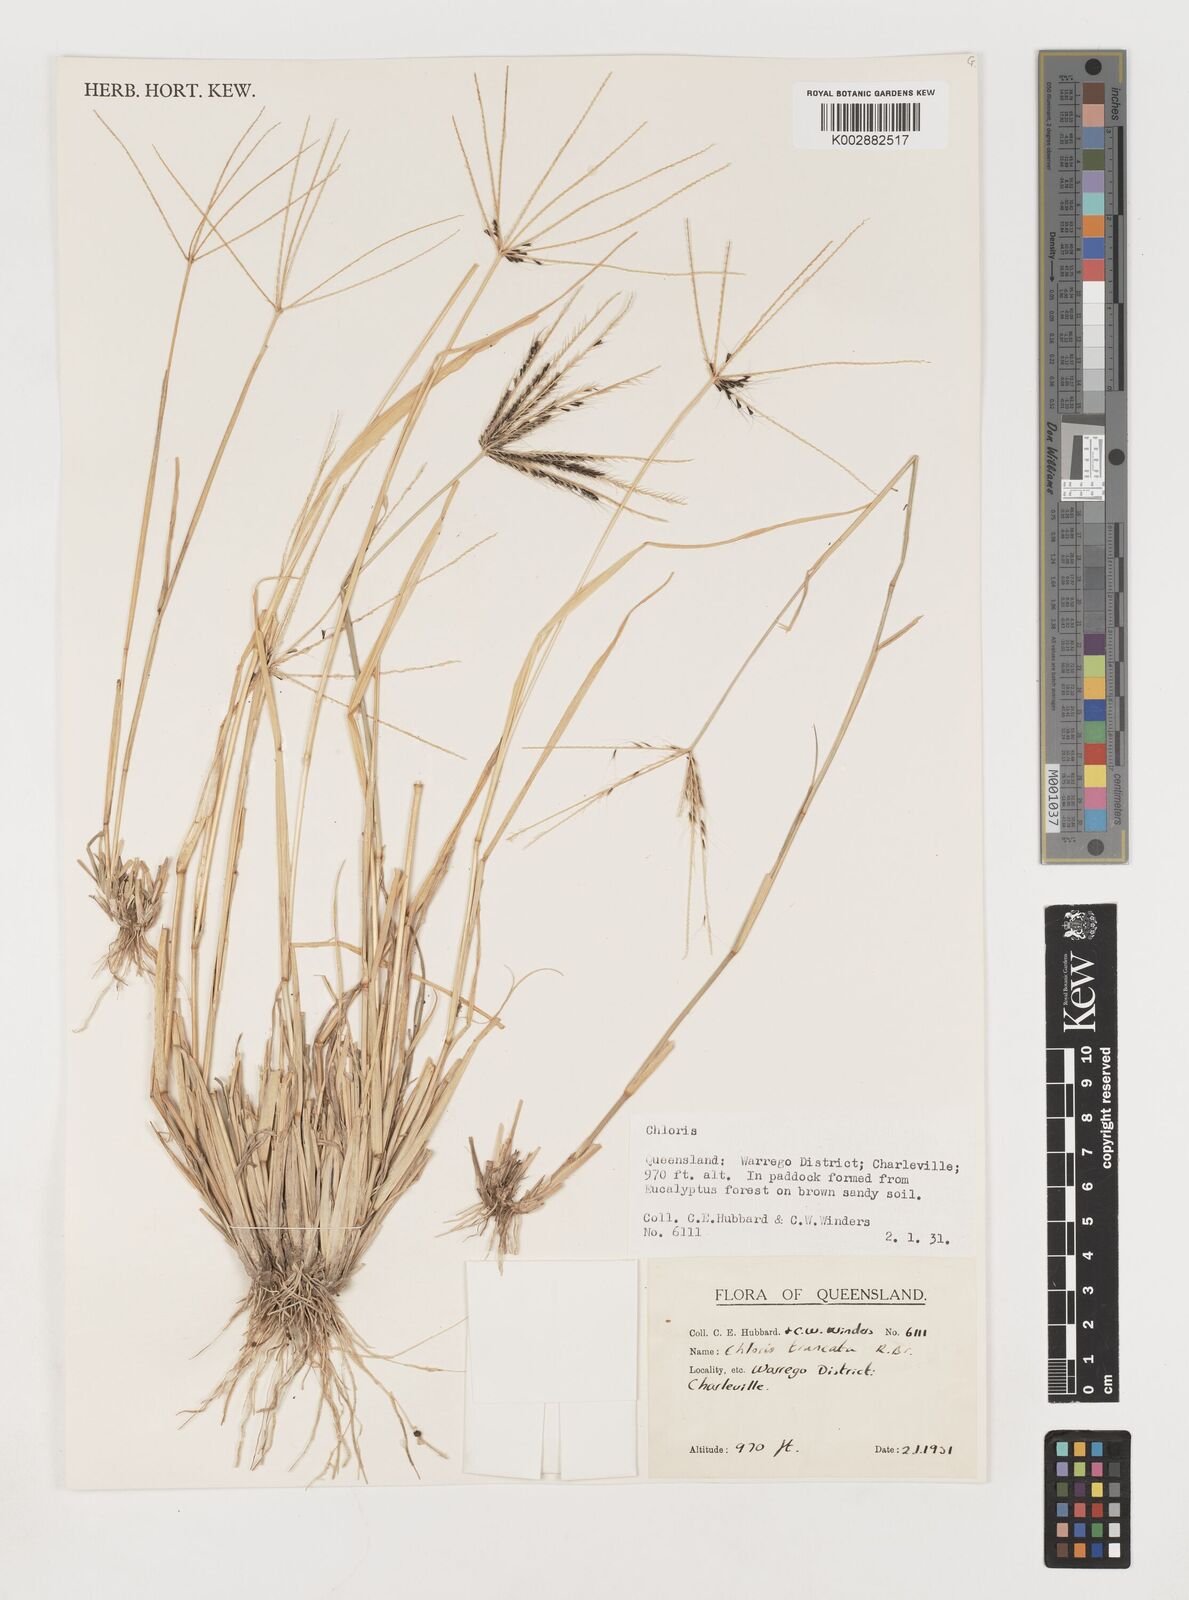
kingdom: Plantae
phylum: Tracheophyta
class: Liliopsida
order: Poales
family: Poaceae
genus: Chloris
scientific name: Chloris truncata
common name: Windmill-grass
